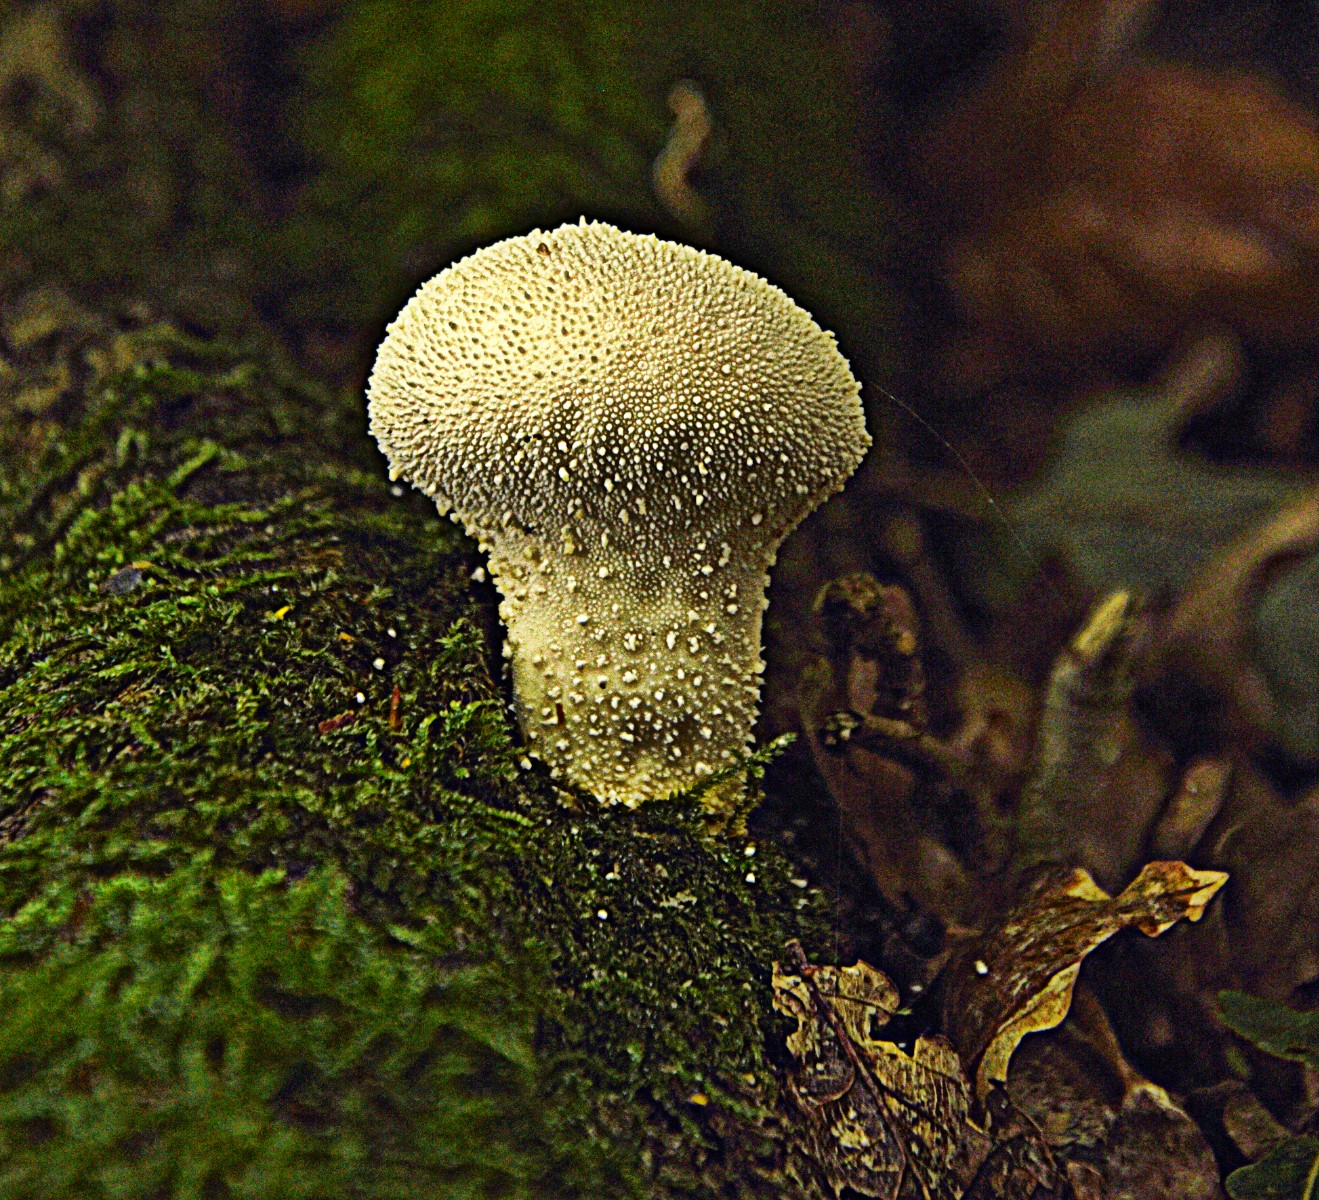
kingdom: Fungi
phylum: Basidiomycota
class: Agaricomycetes
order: Agaricales
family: Lycoperdaceae
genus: Lycoperdon
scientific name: Lycoperdon perlatum
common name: krystal-støvbold
